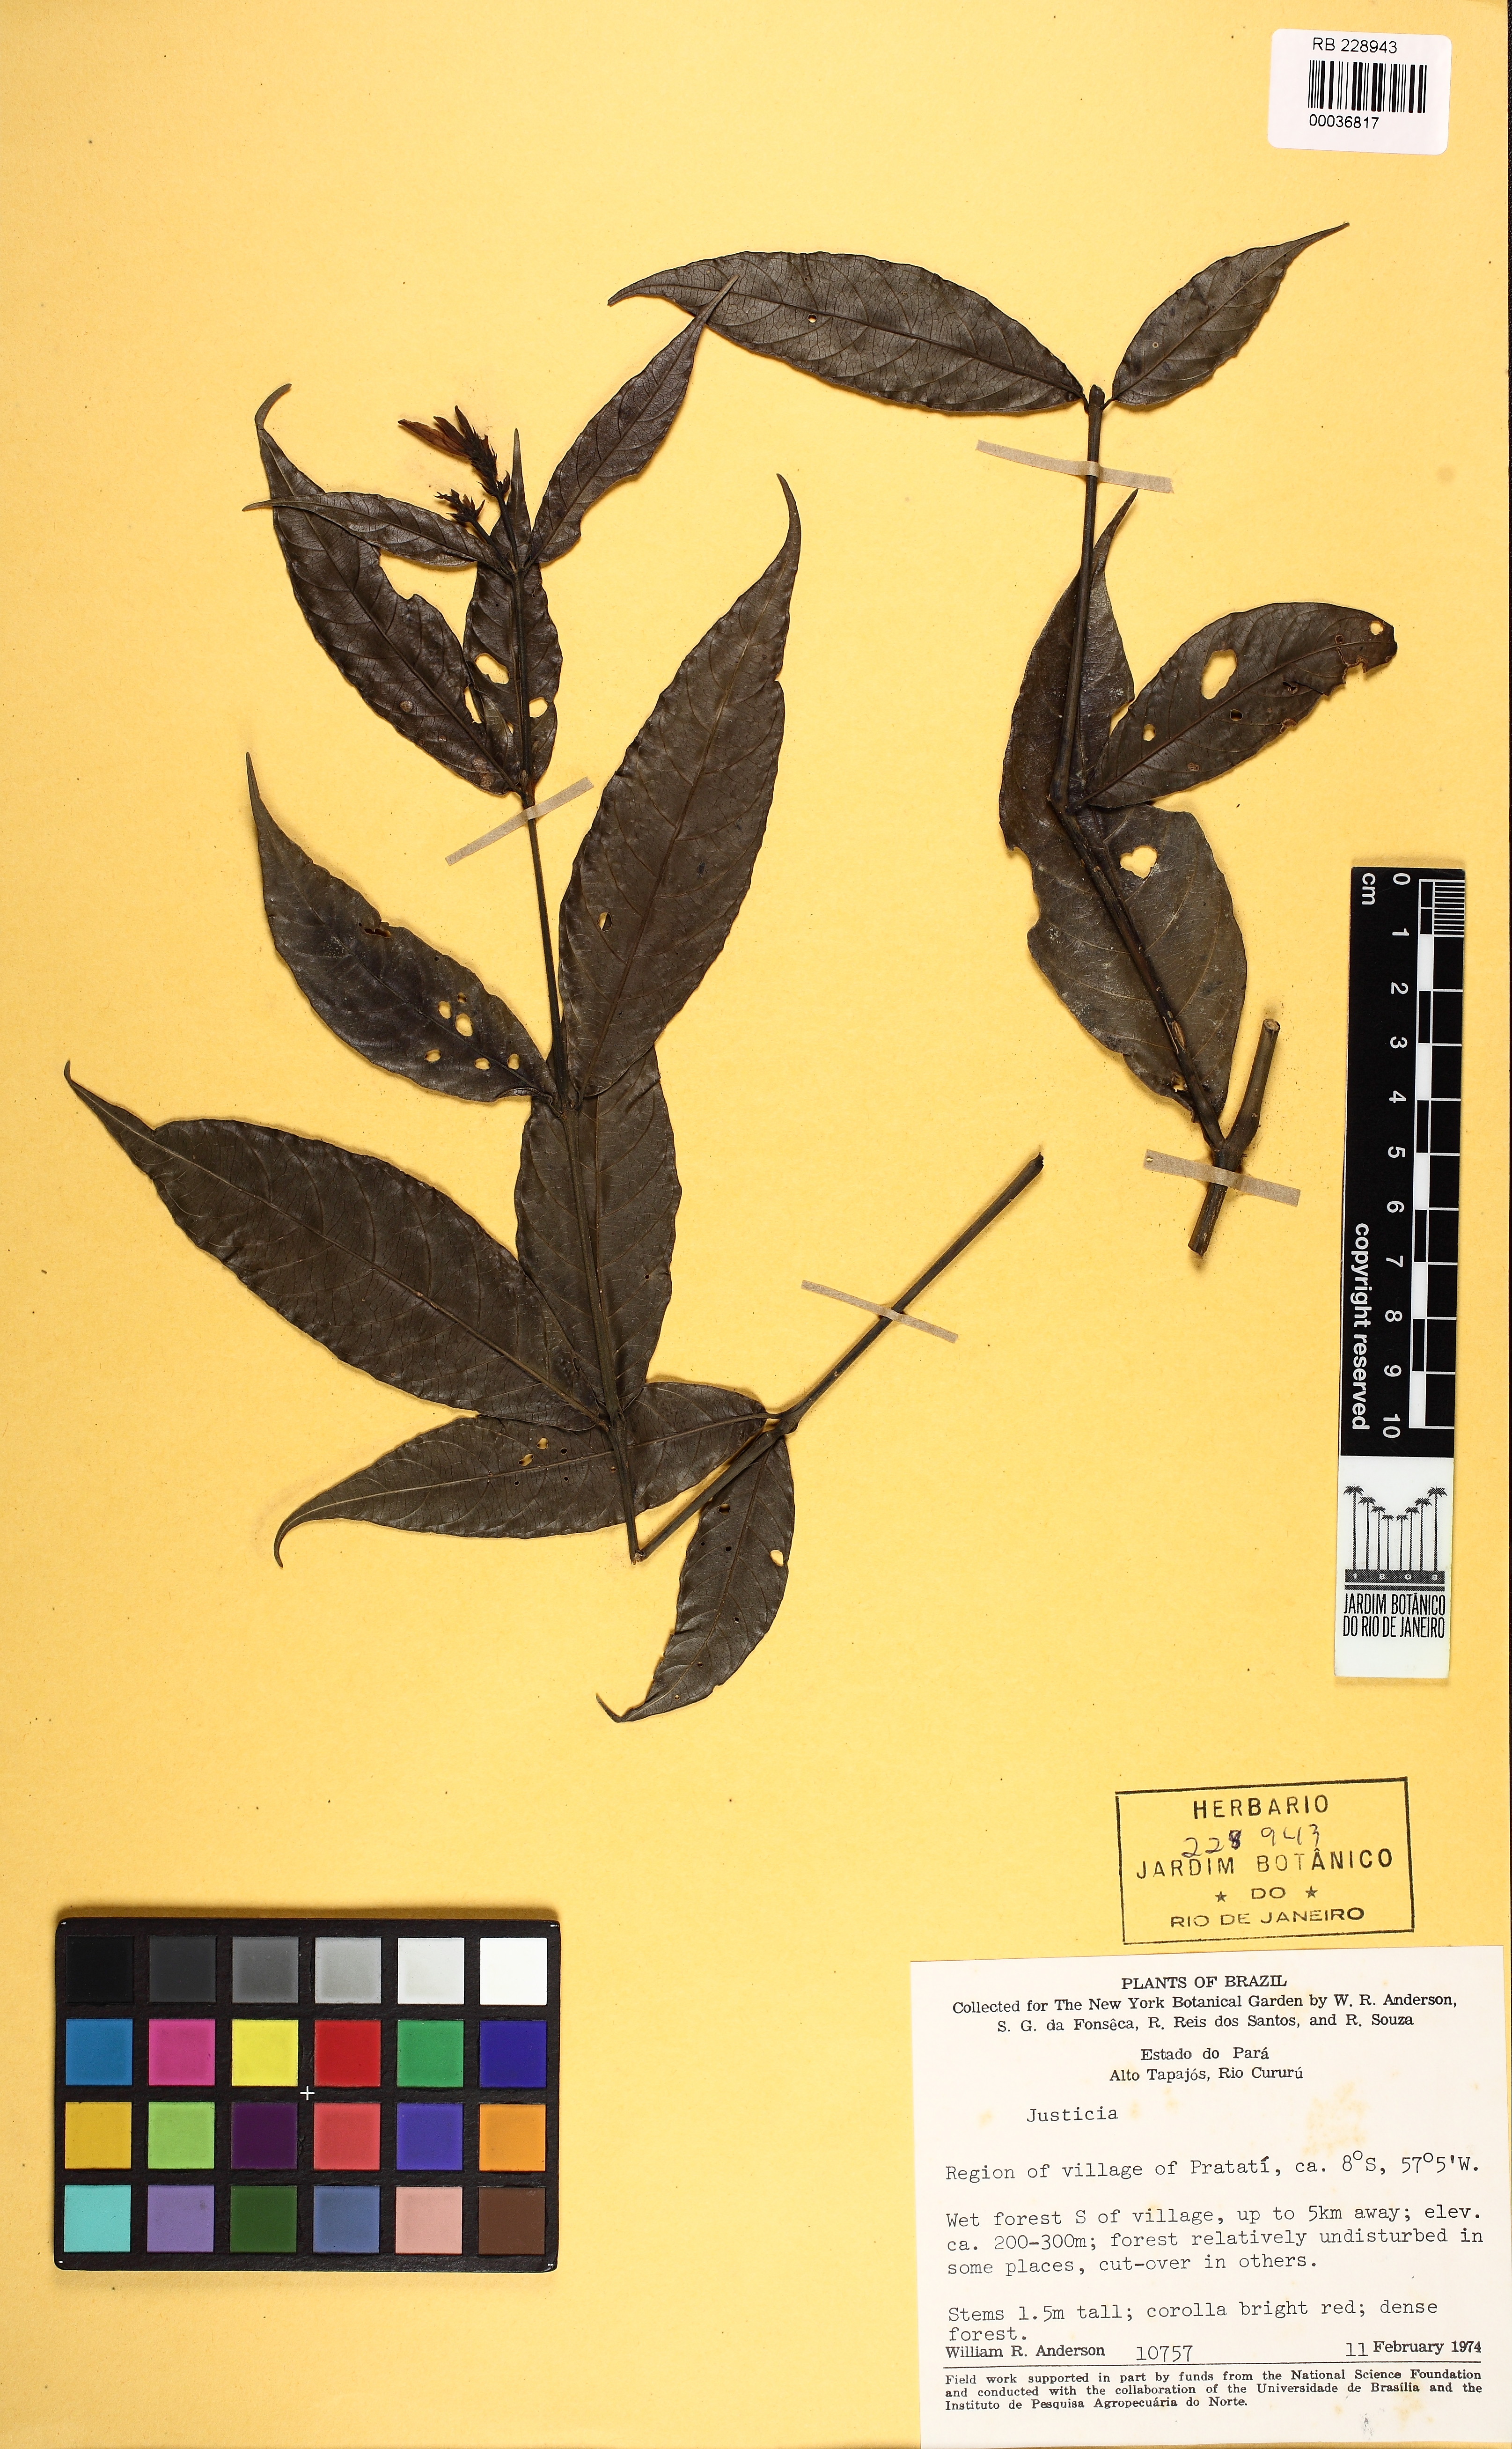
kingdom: Plantae
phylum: Tracheophyta
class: Magnoliopsida
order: Lamiales
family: Acanthaceae
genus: Justicia
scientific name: Justicia birae
